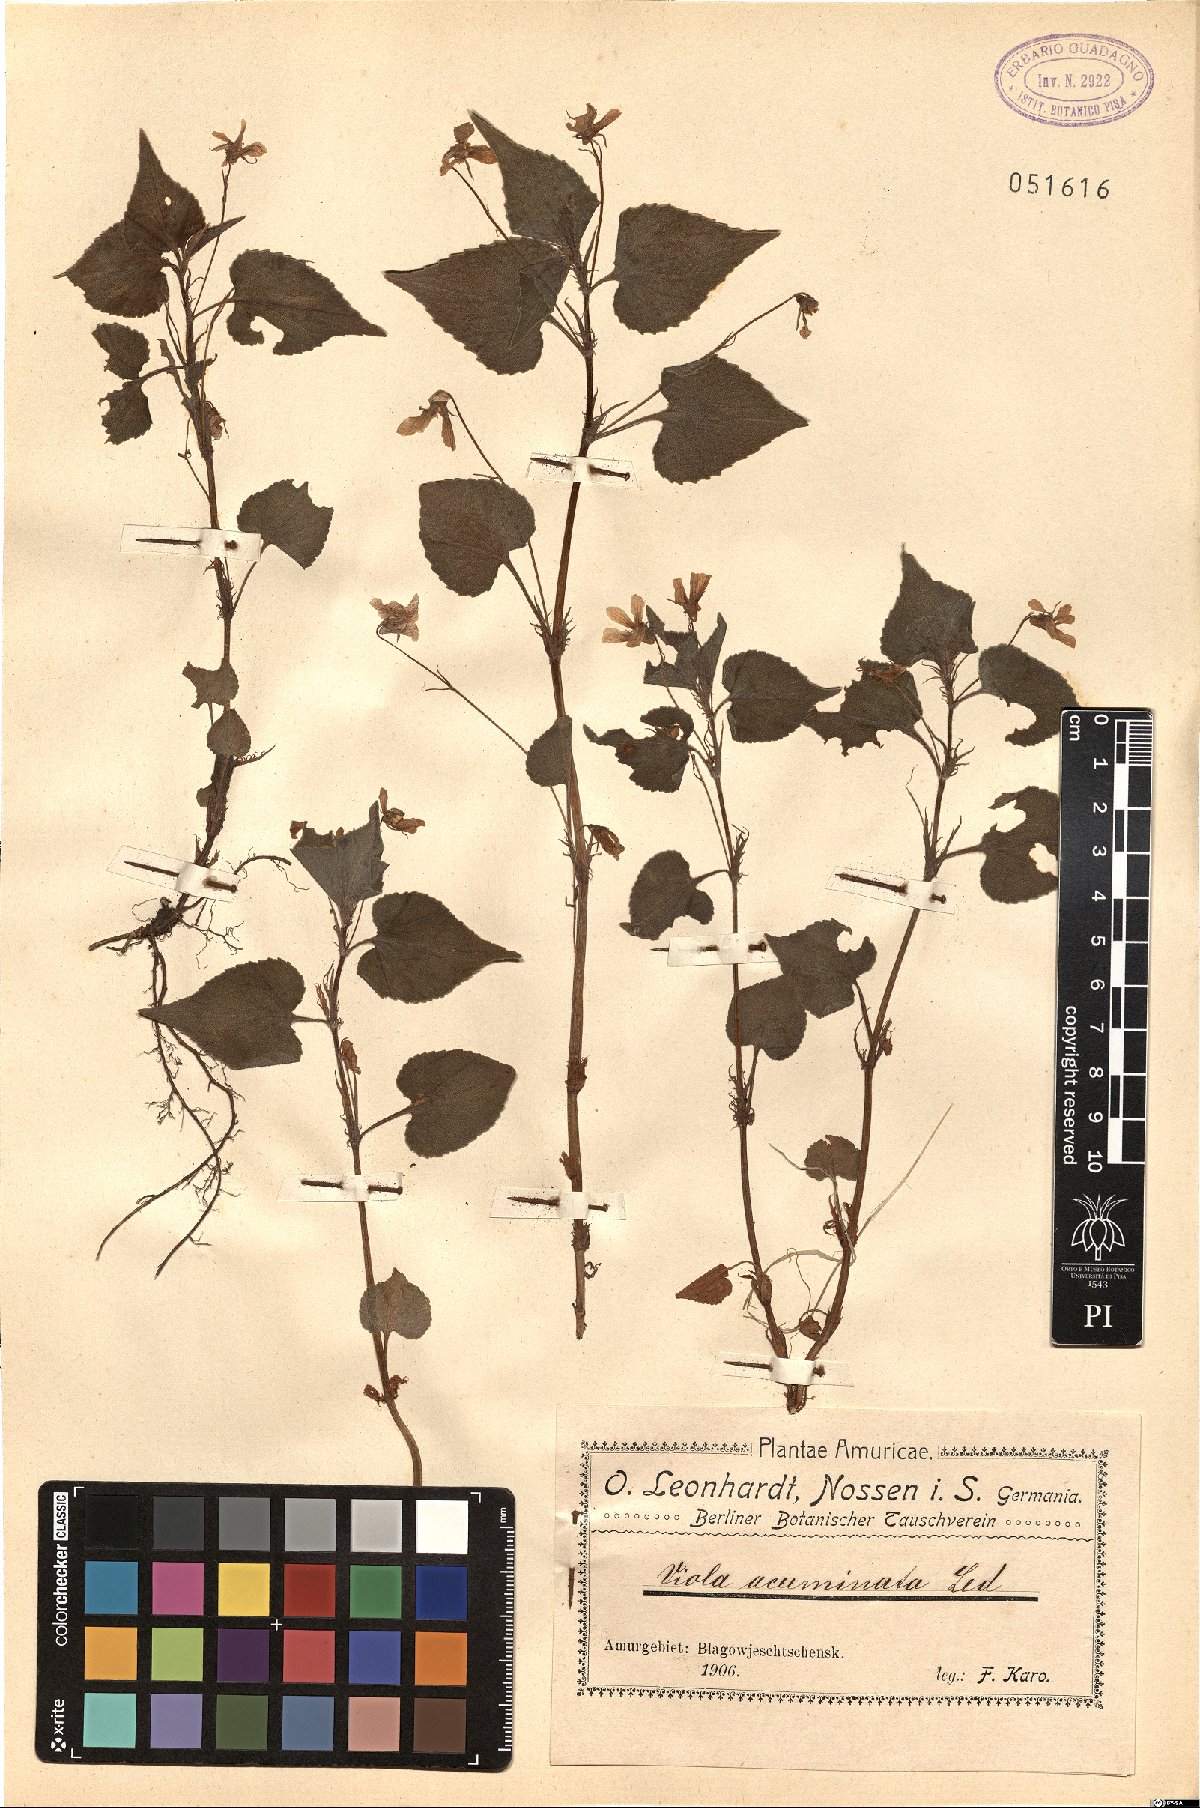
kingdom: Plantae
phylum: Tracheophyta
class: Magnoliopsida
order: Malpighiales
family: Violaceae
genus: Viola
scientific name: Viola acuminata
